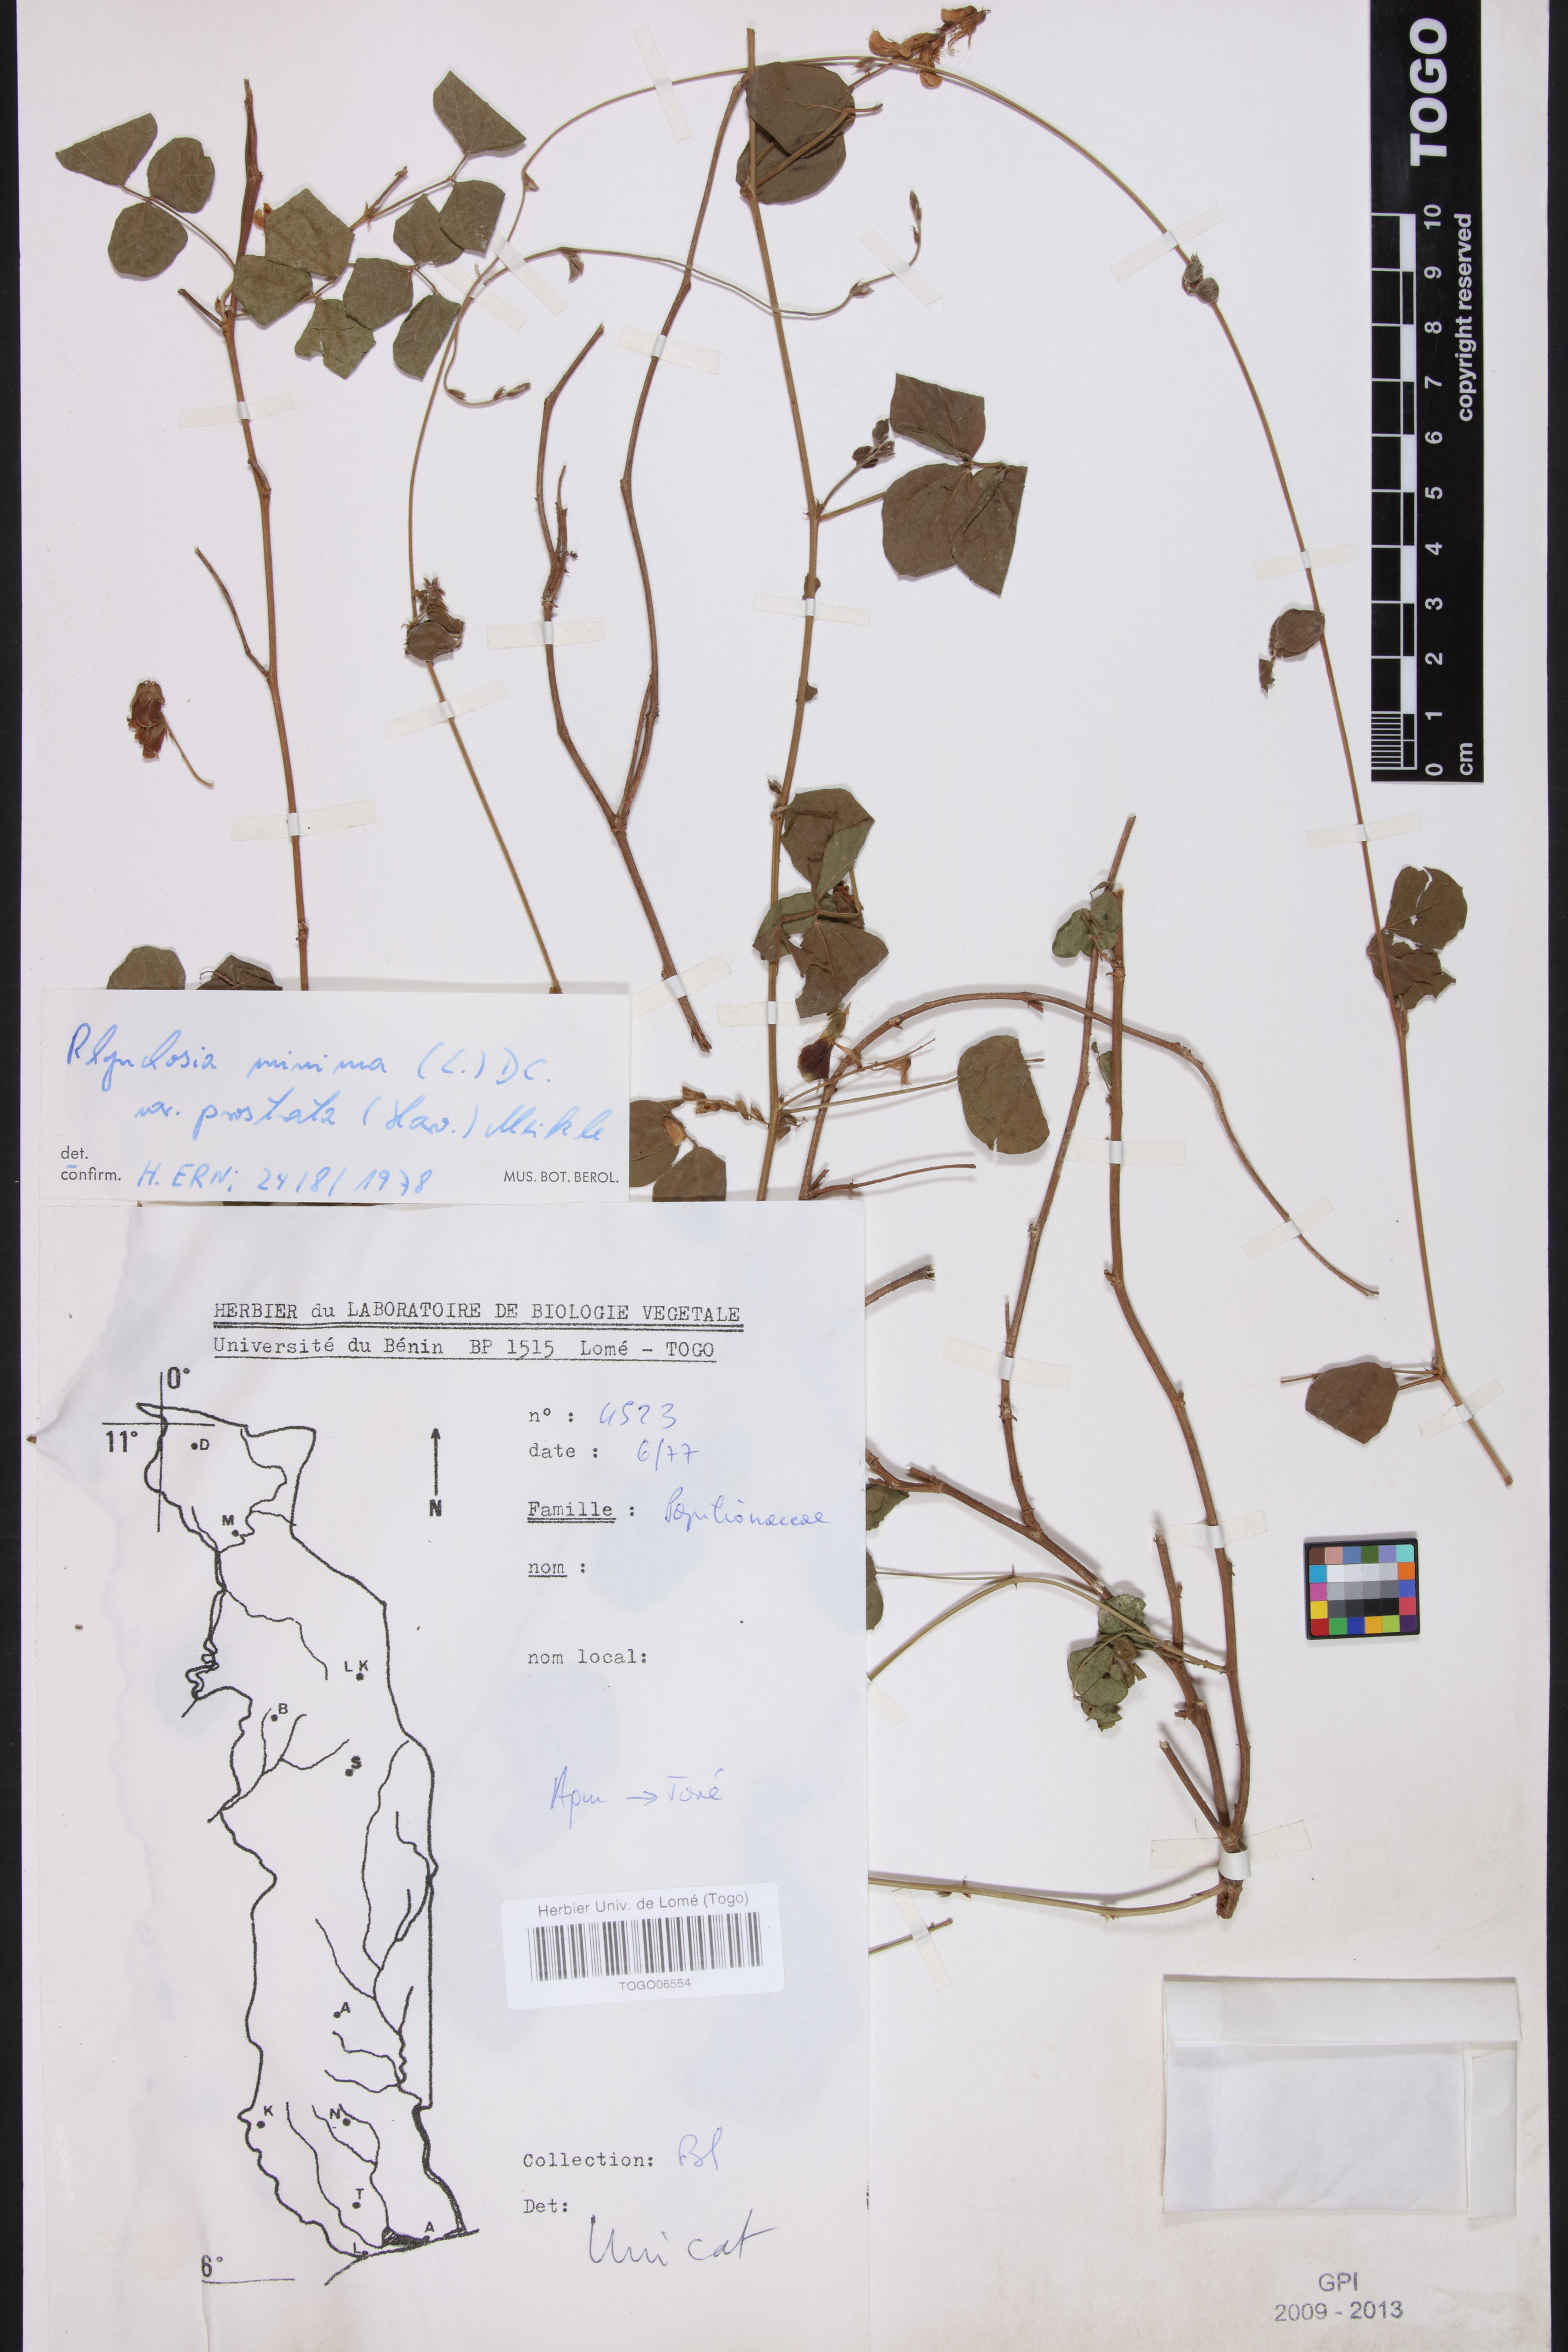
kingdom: Plantae
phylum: Tracheophyta
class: Magnoliopsida
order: Fabales
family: Fabaceae
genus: Rhynchosia
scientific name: Rhynchosia minima
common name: Least snoutbean
